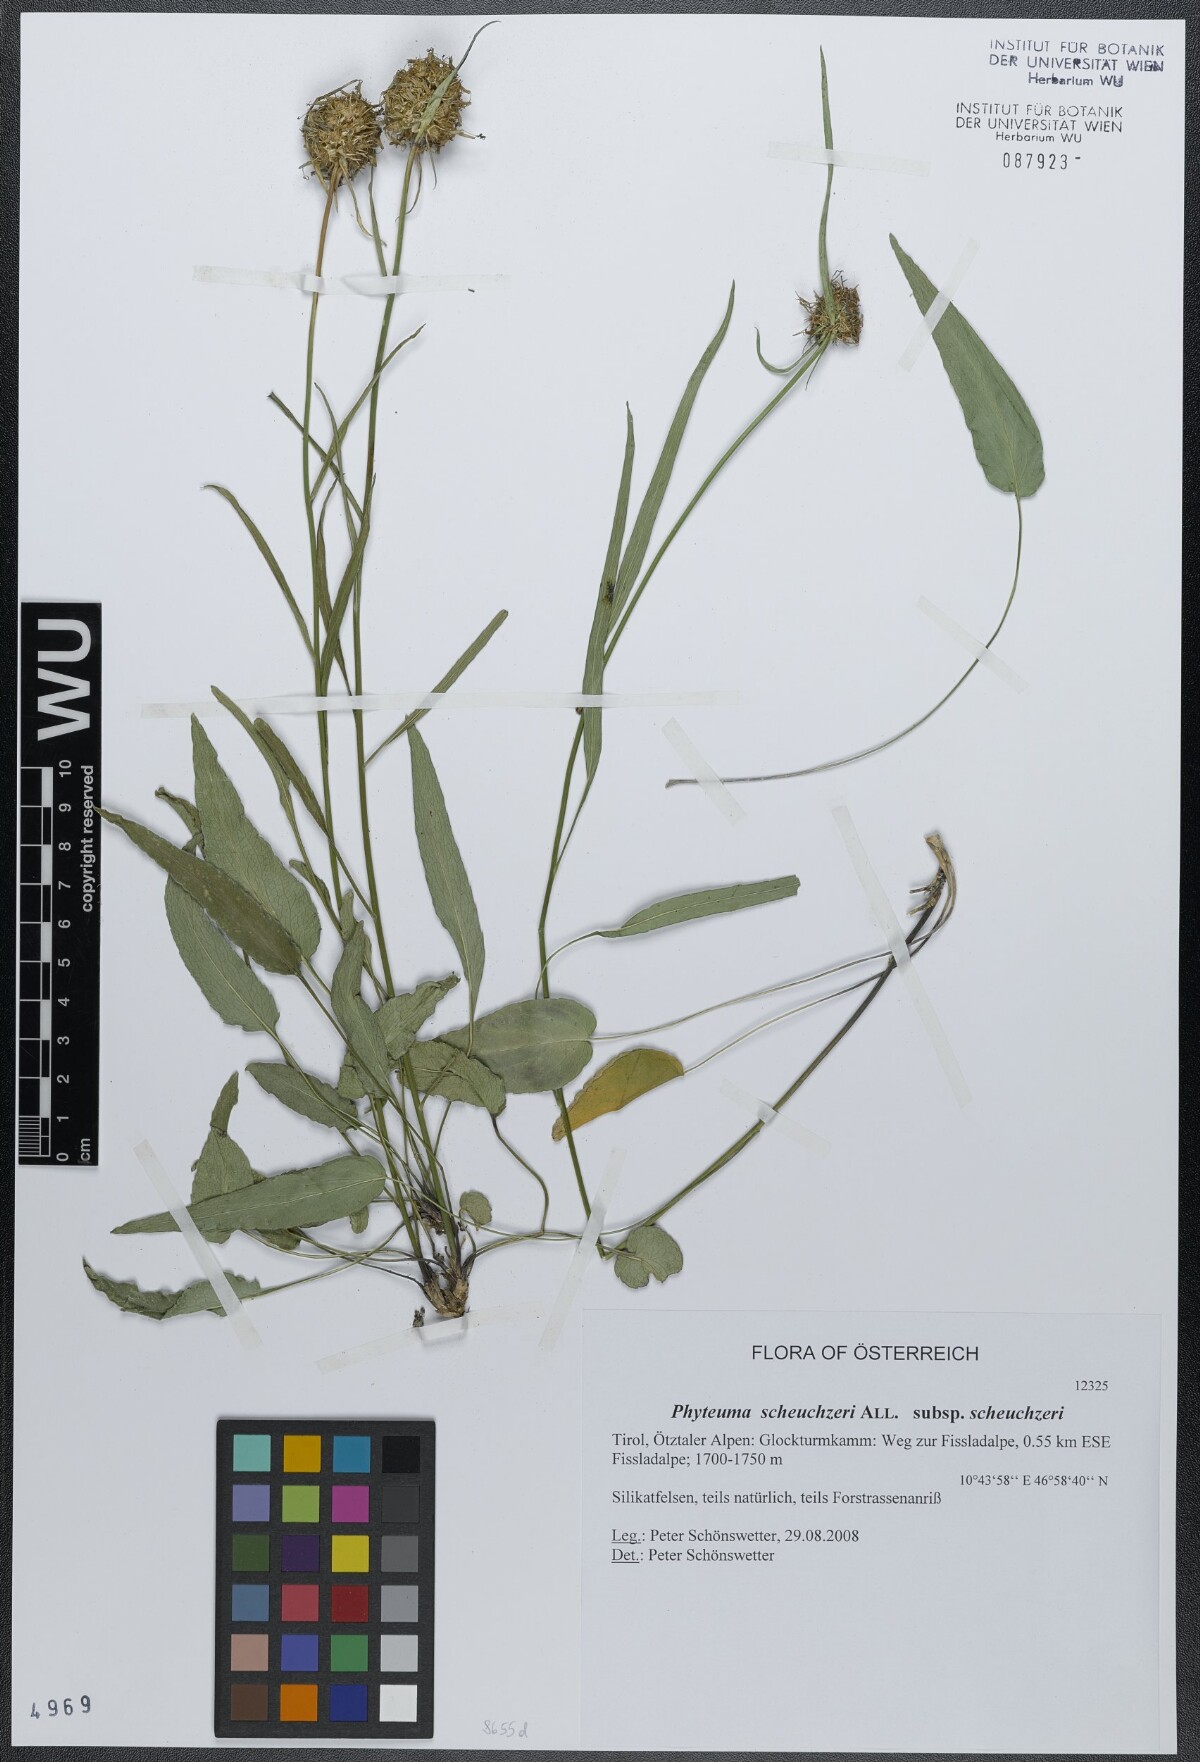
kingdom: Plantae
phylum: Tracheophyta
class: Magnoliopsida
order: Asterales
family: Campanulaceae
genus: Phyteuma
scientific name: Phyteuma scheuchzeri
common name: Oxford rampion
